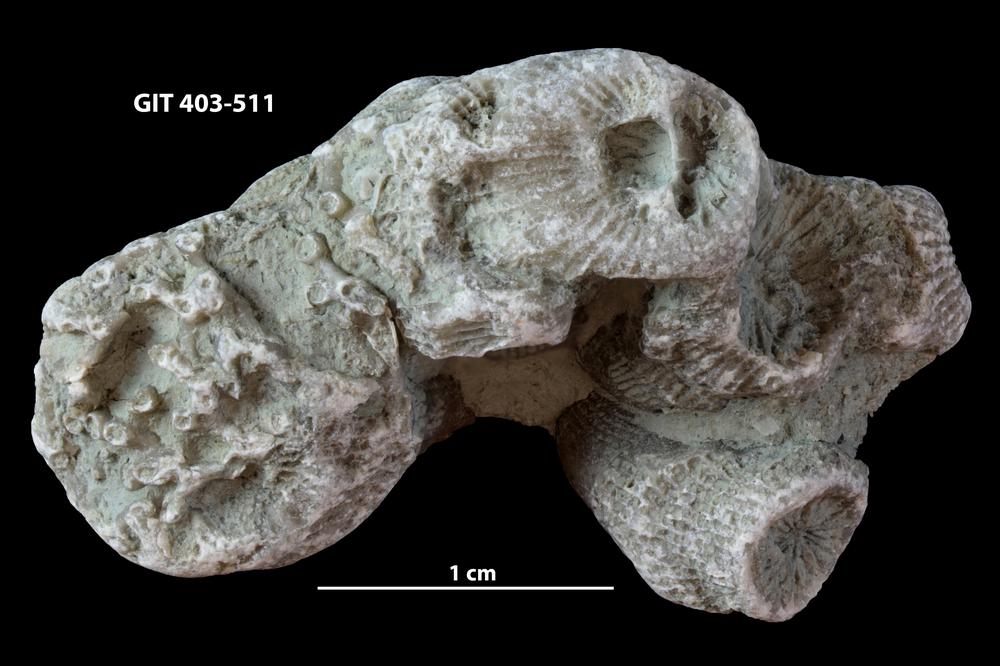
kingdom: Animalia
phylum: Cnidaria
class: Anthozoa
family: Entelophyllidae
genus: Entelophyllum
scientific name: Entelophyllum
